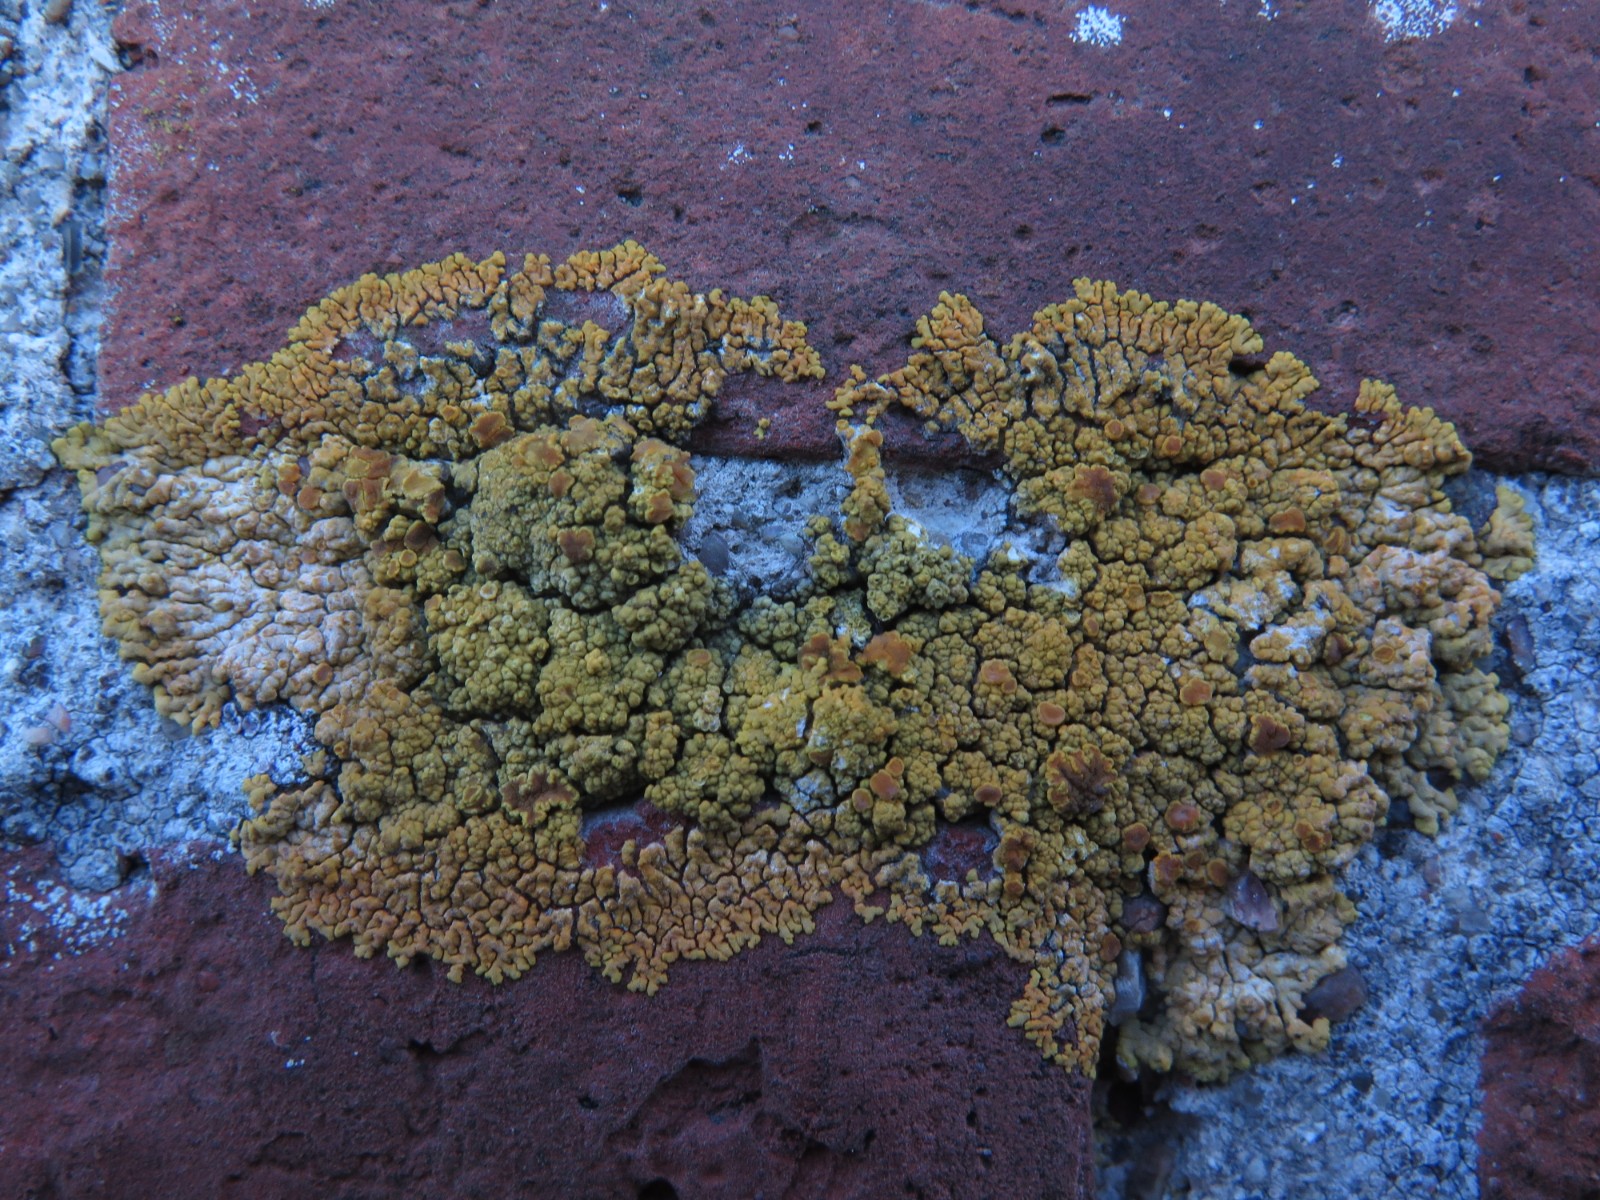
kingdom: Fungi
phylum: Ascomycota
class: Lecanoromycetes
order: Teloschistales
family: Teloschistaceae
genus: Variospora
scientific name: Variospora flavescens
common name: kalk-orangelav
